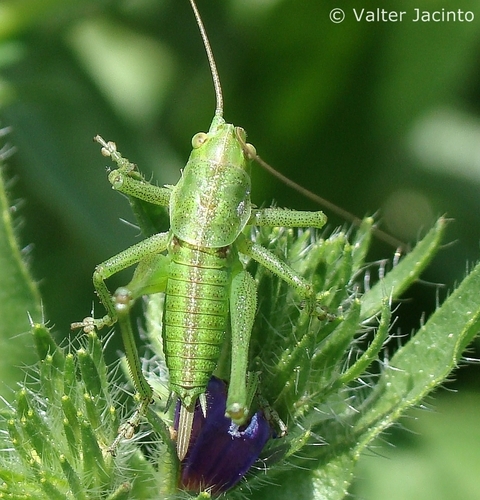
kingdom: Animalia
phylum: Arthropoda
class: Insecta
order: Orthoptera
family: Tettigoniidae
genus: Tettigonia
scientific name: Tettigonia viridissima
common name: Great green bush-cricket
